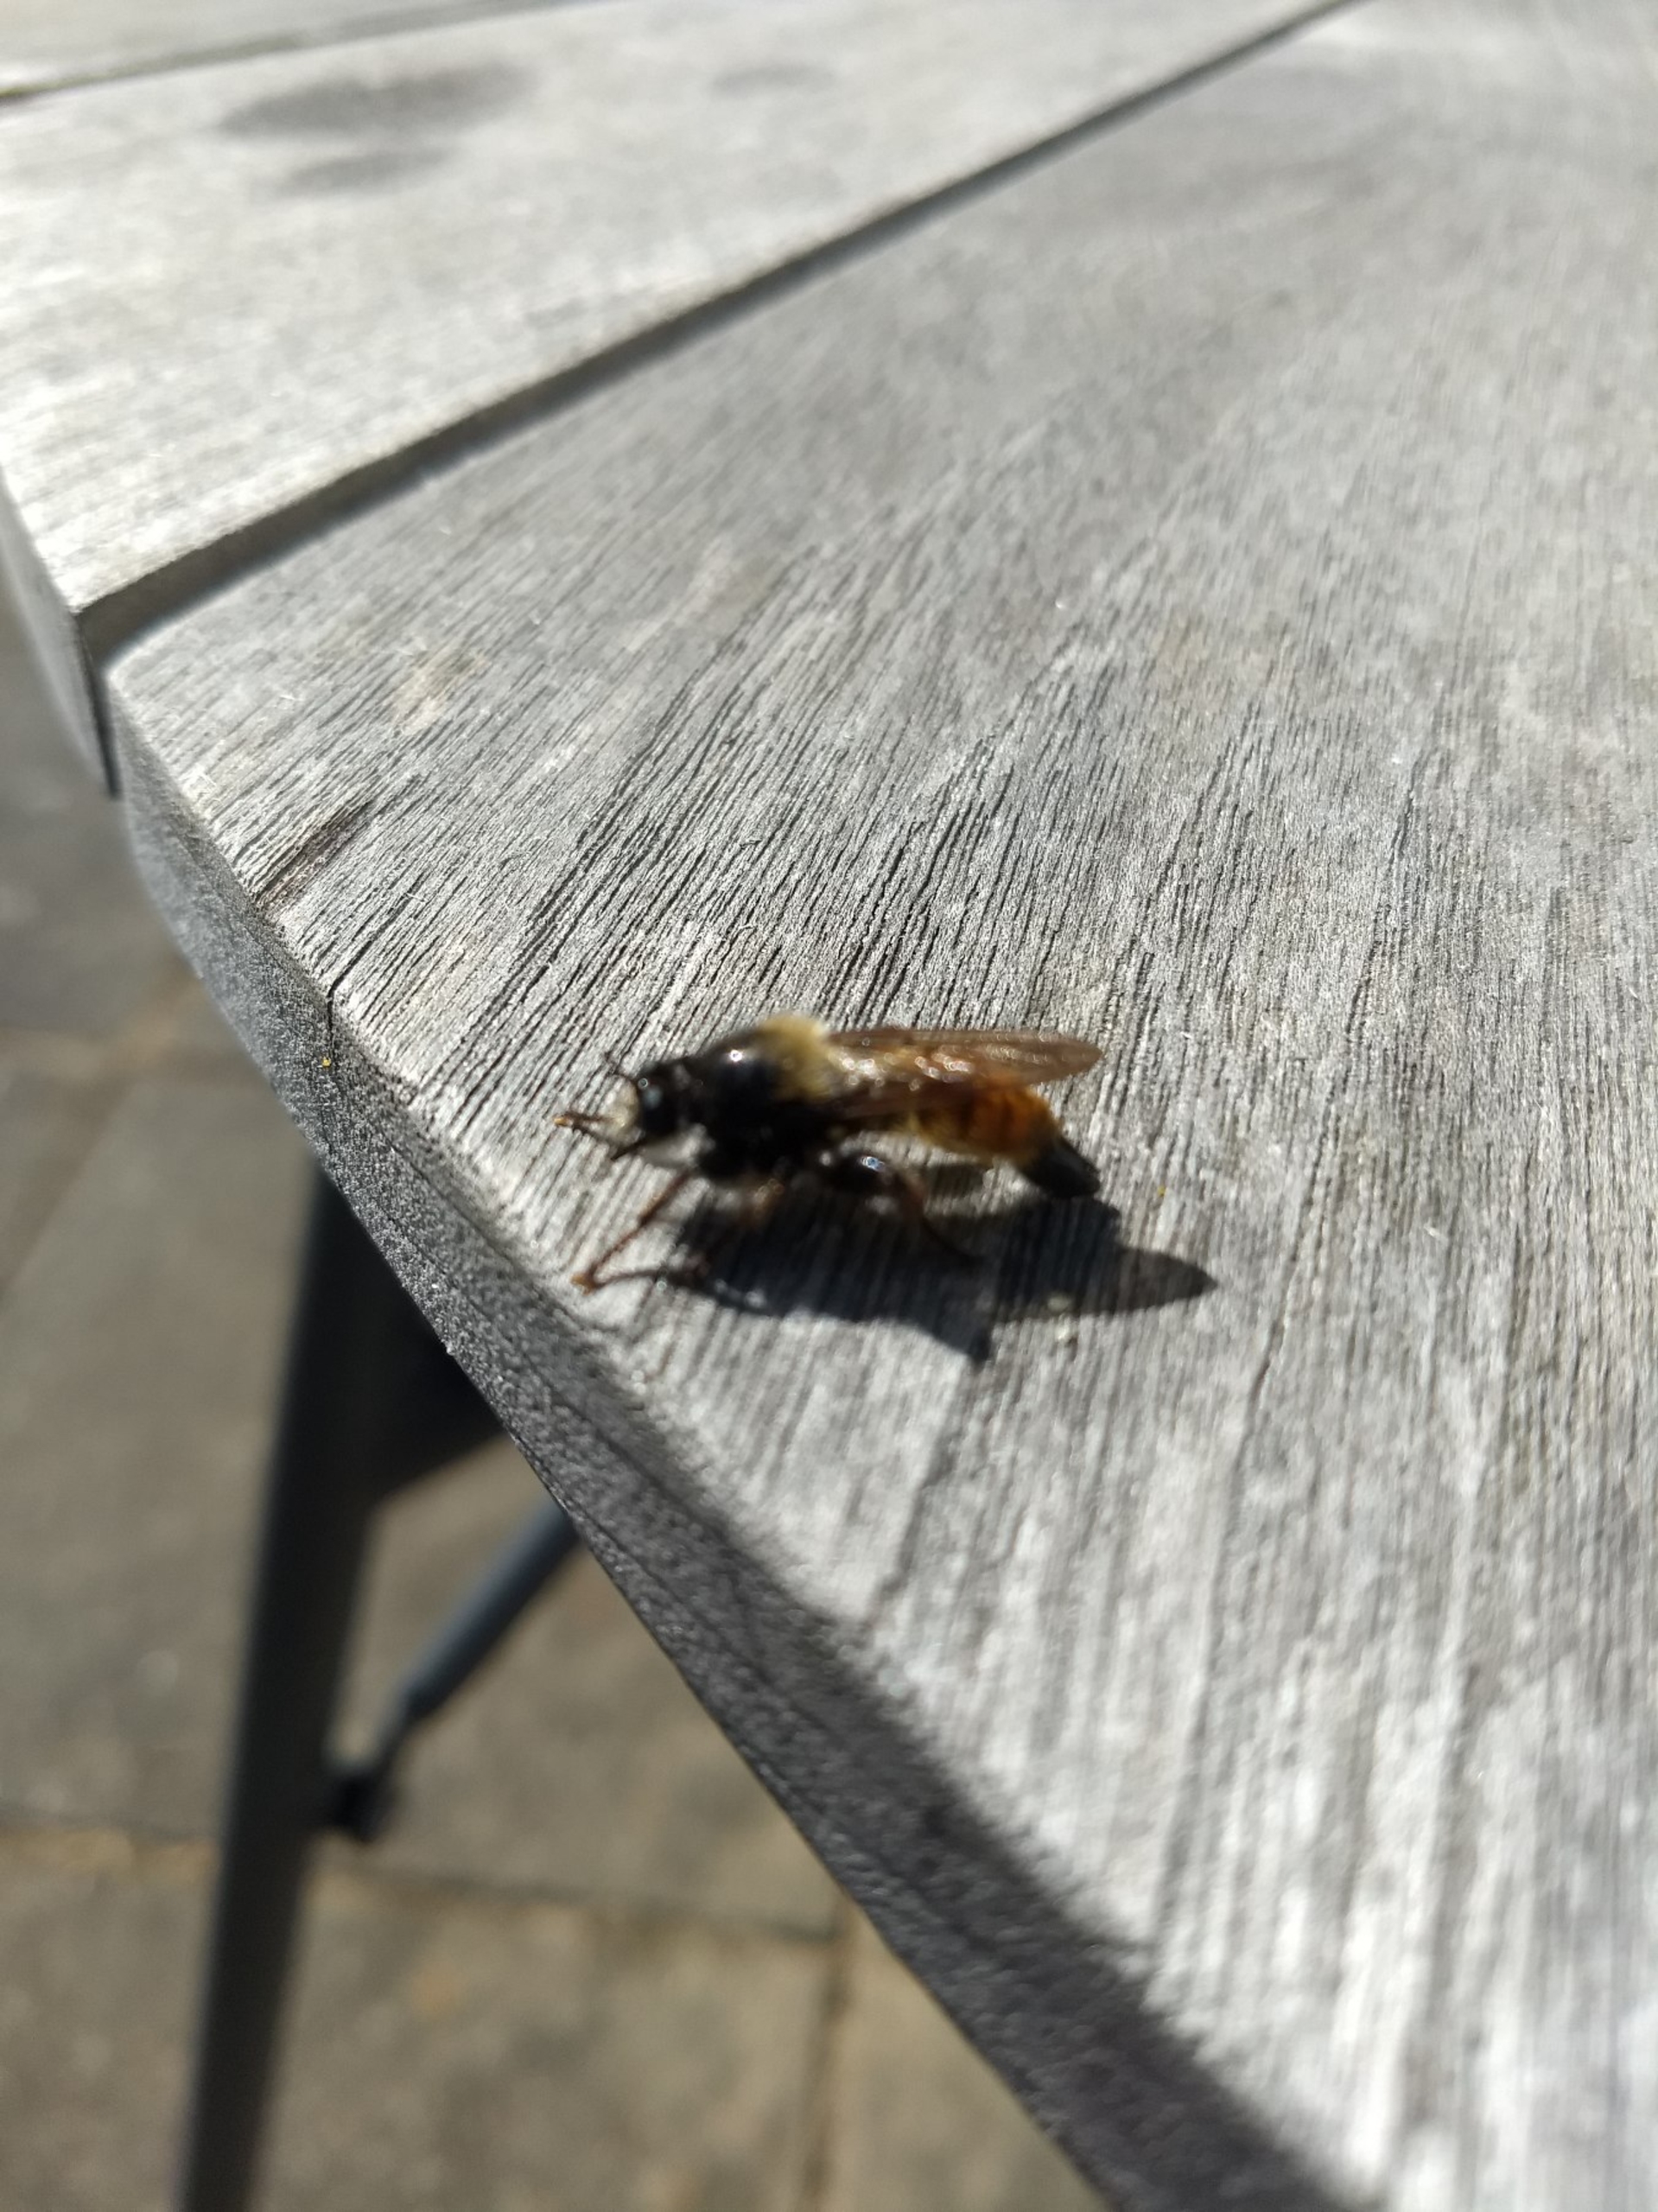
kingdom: Animalia
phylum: Arthropoda
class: Insecta
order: Diptera
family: Asilidae
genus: Laphria
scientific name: Laphria flava
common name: Gul vedrovflue
